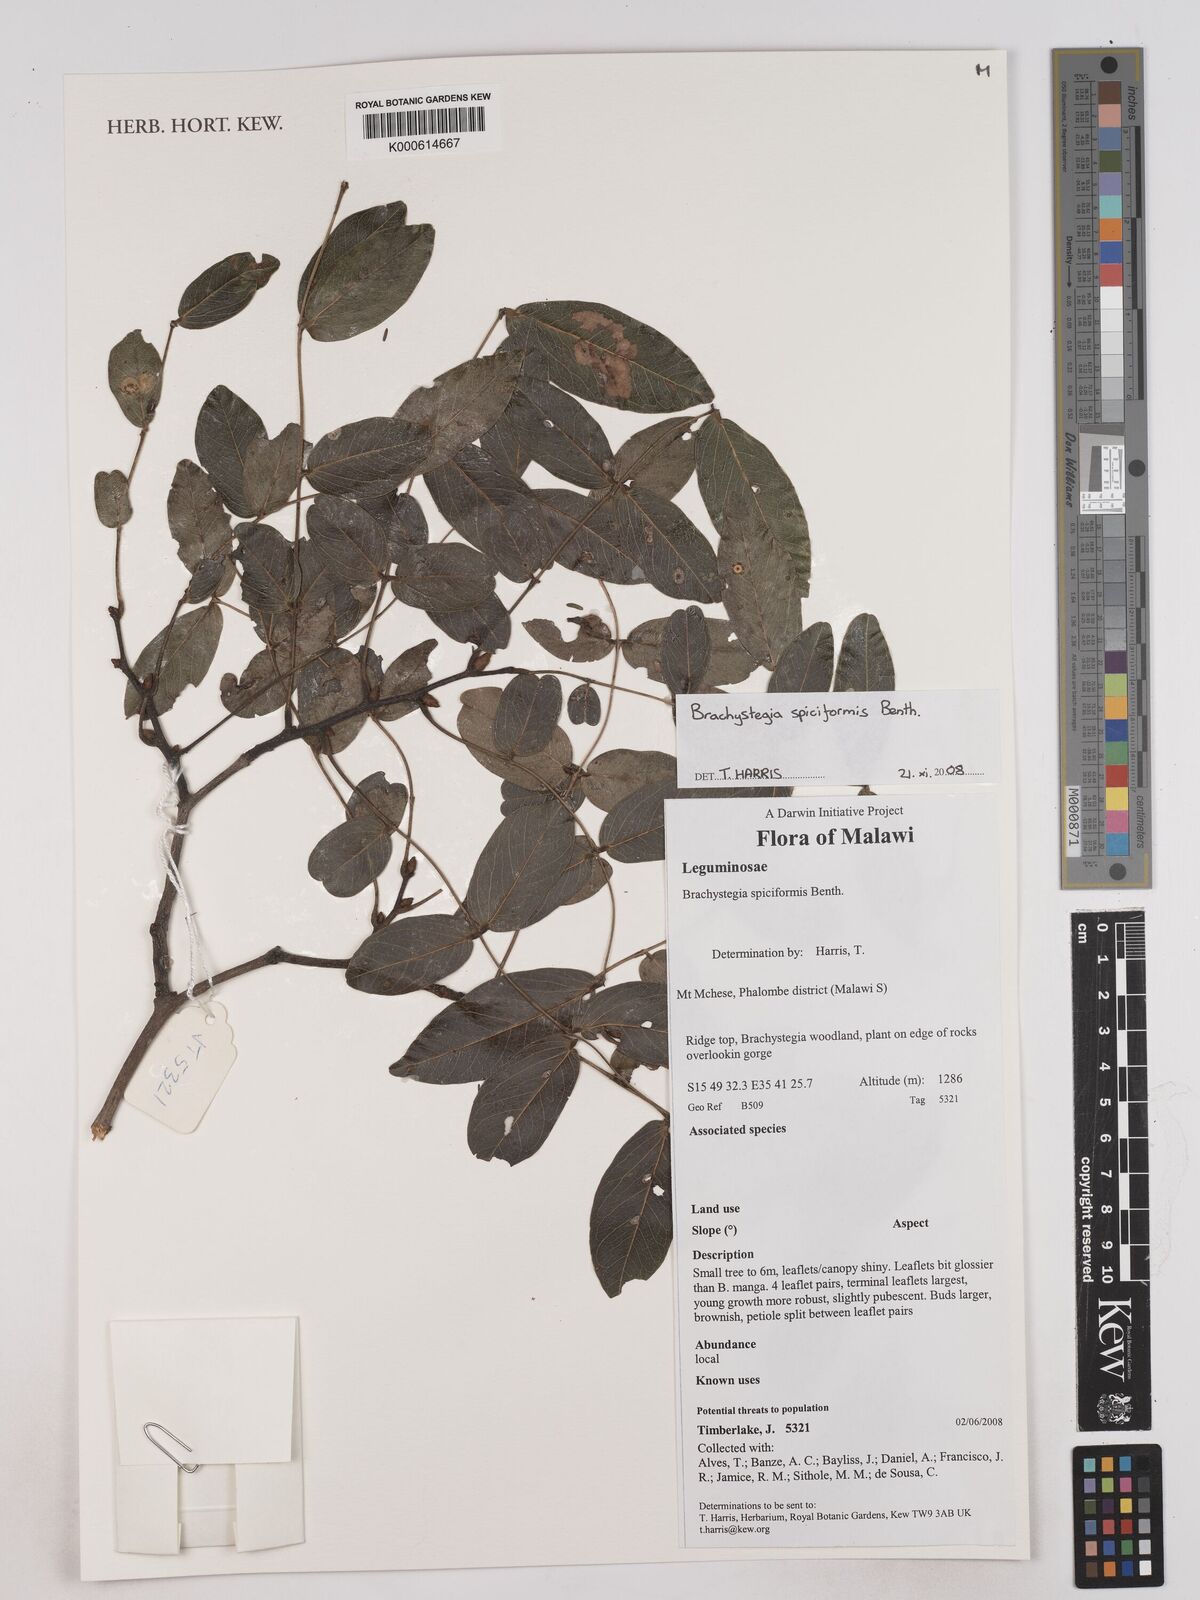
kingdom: Plantae
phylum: Tracheophyta
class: Magnoliopsida
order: Fabales
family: Fabaceae
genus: Brachystegia
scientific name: Brachystegia spiciformis
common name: Zebrawood
